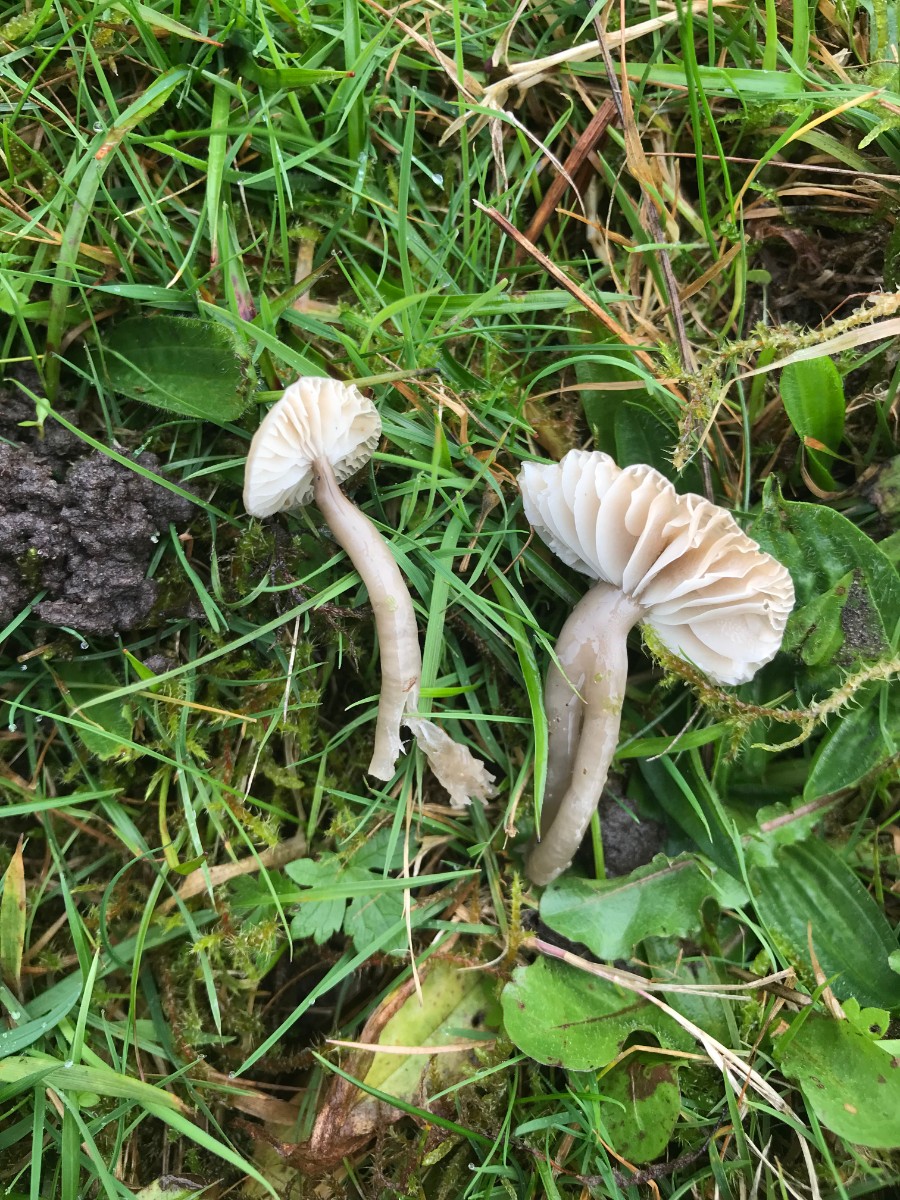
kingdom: Fungi
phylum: Basidiomycota
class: Agaricomycetes
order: Agaricales
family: Hygrophoraceae
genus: Gliophorus
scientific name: Gliophorus irrigatus
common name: slimet vokshat
